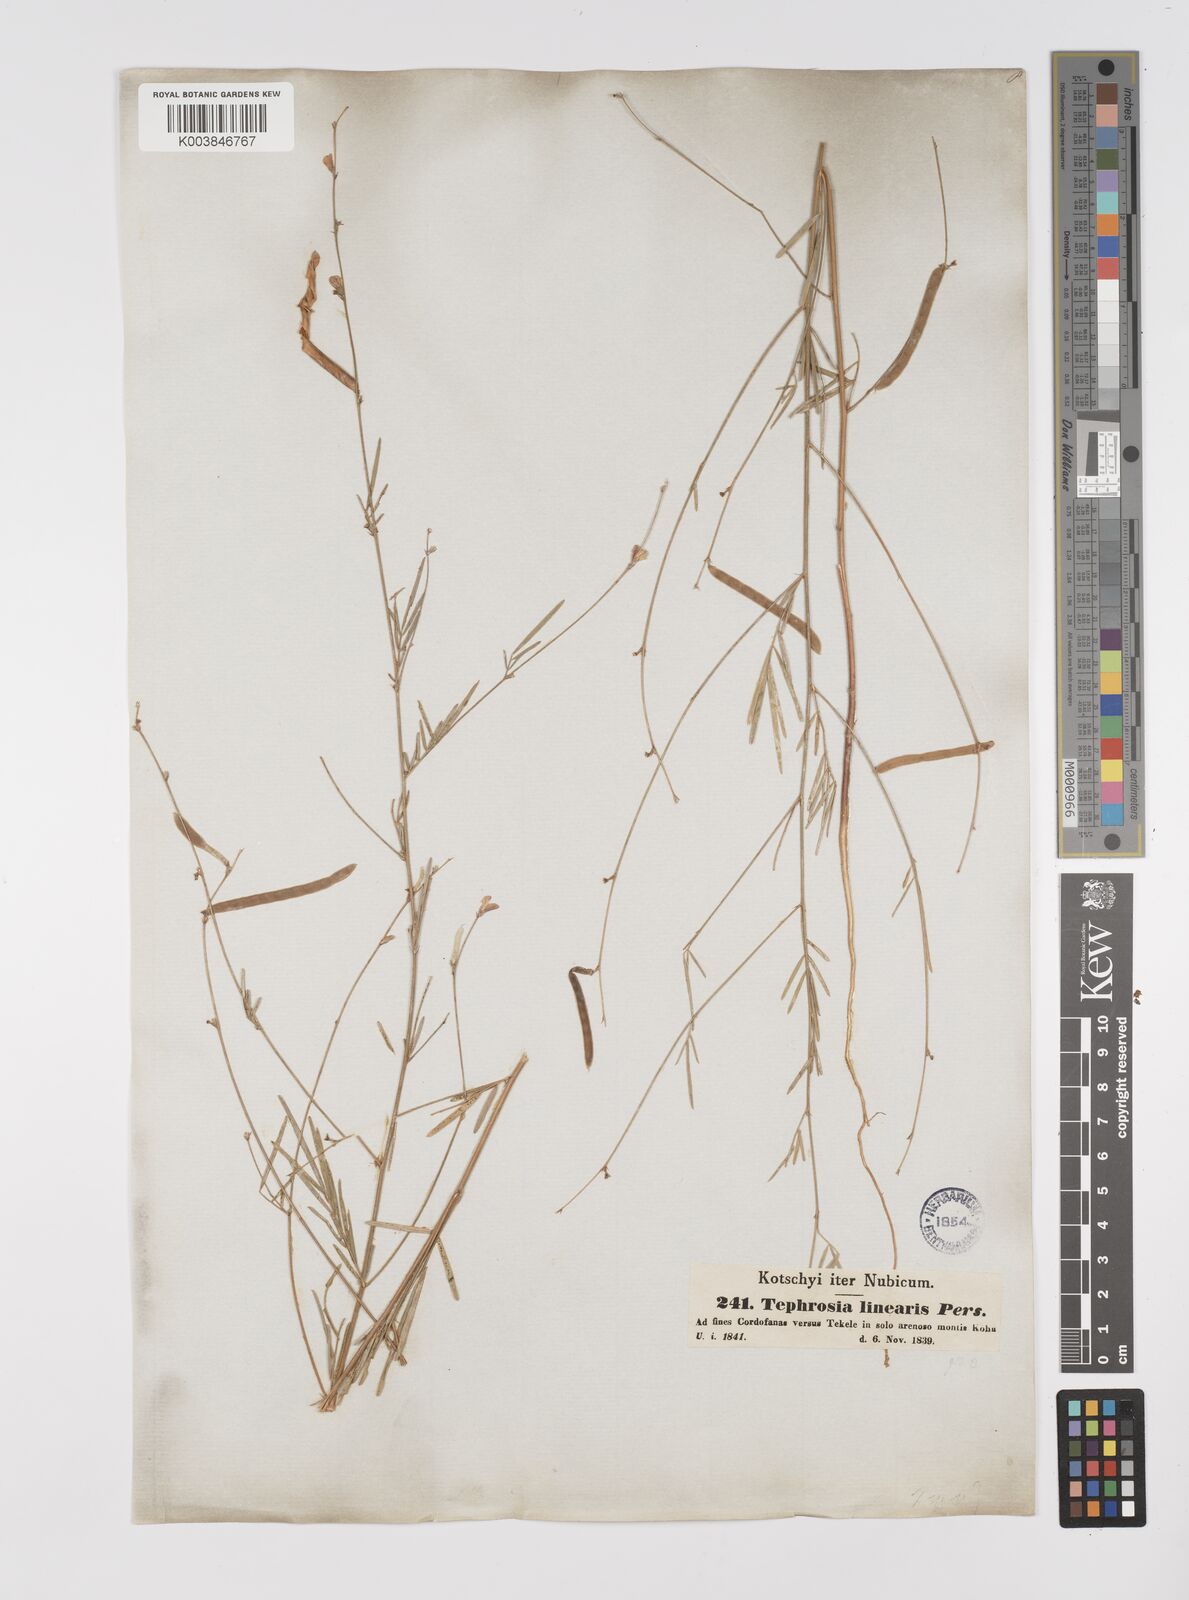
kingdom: Plantae
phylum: Tracheophyta
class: Magnoliopsida
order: Fabales
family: Fabaceae
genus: Tephrosia
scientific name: Tephrosia linearis
